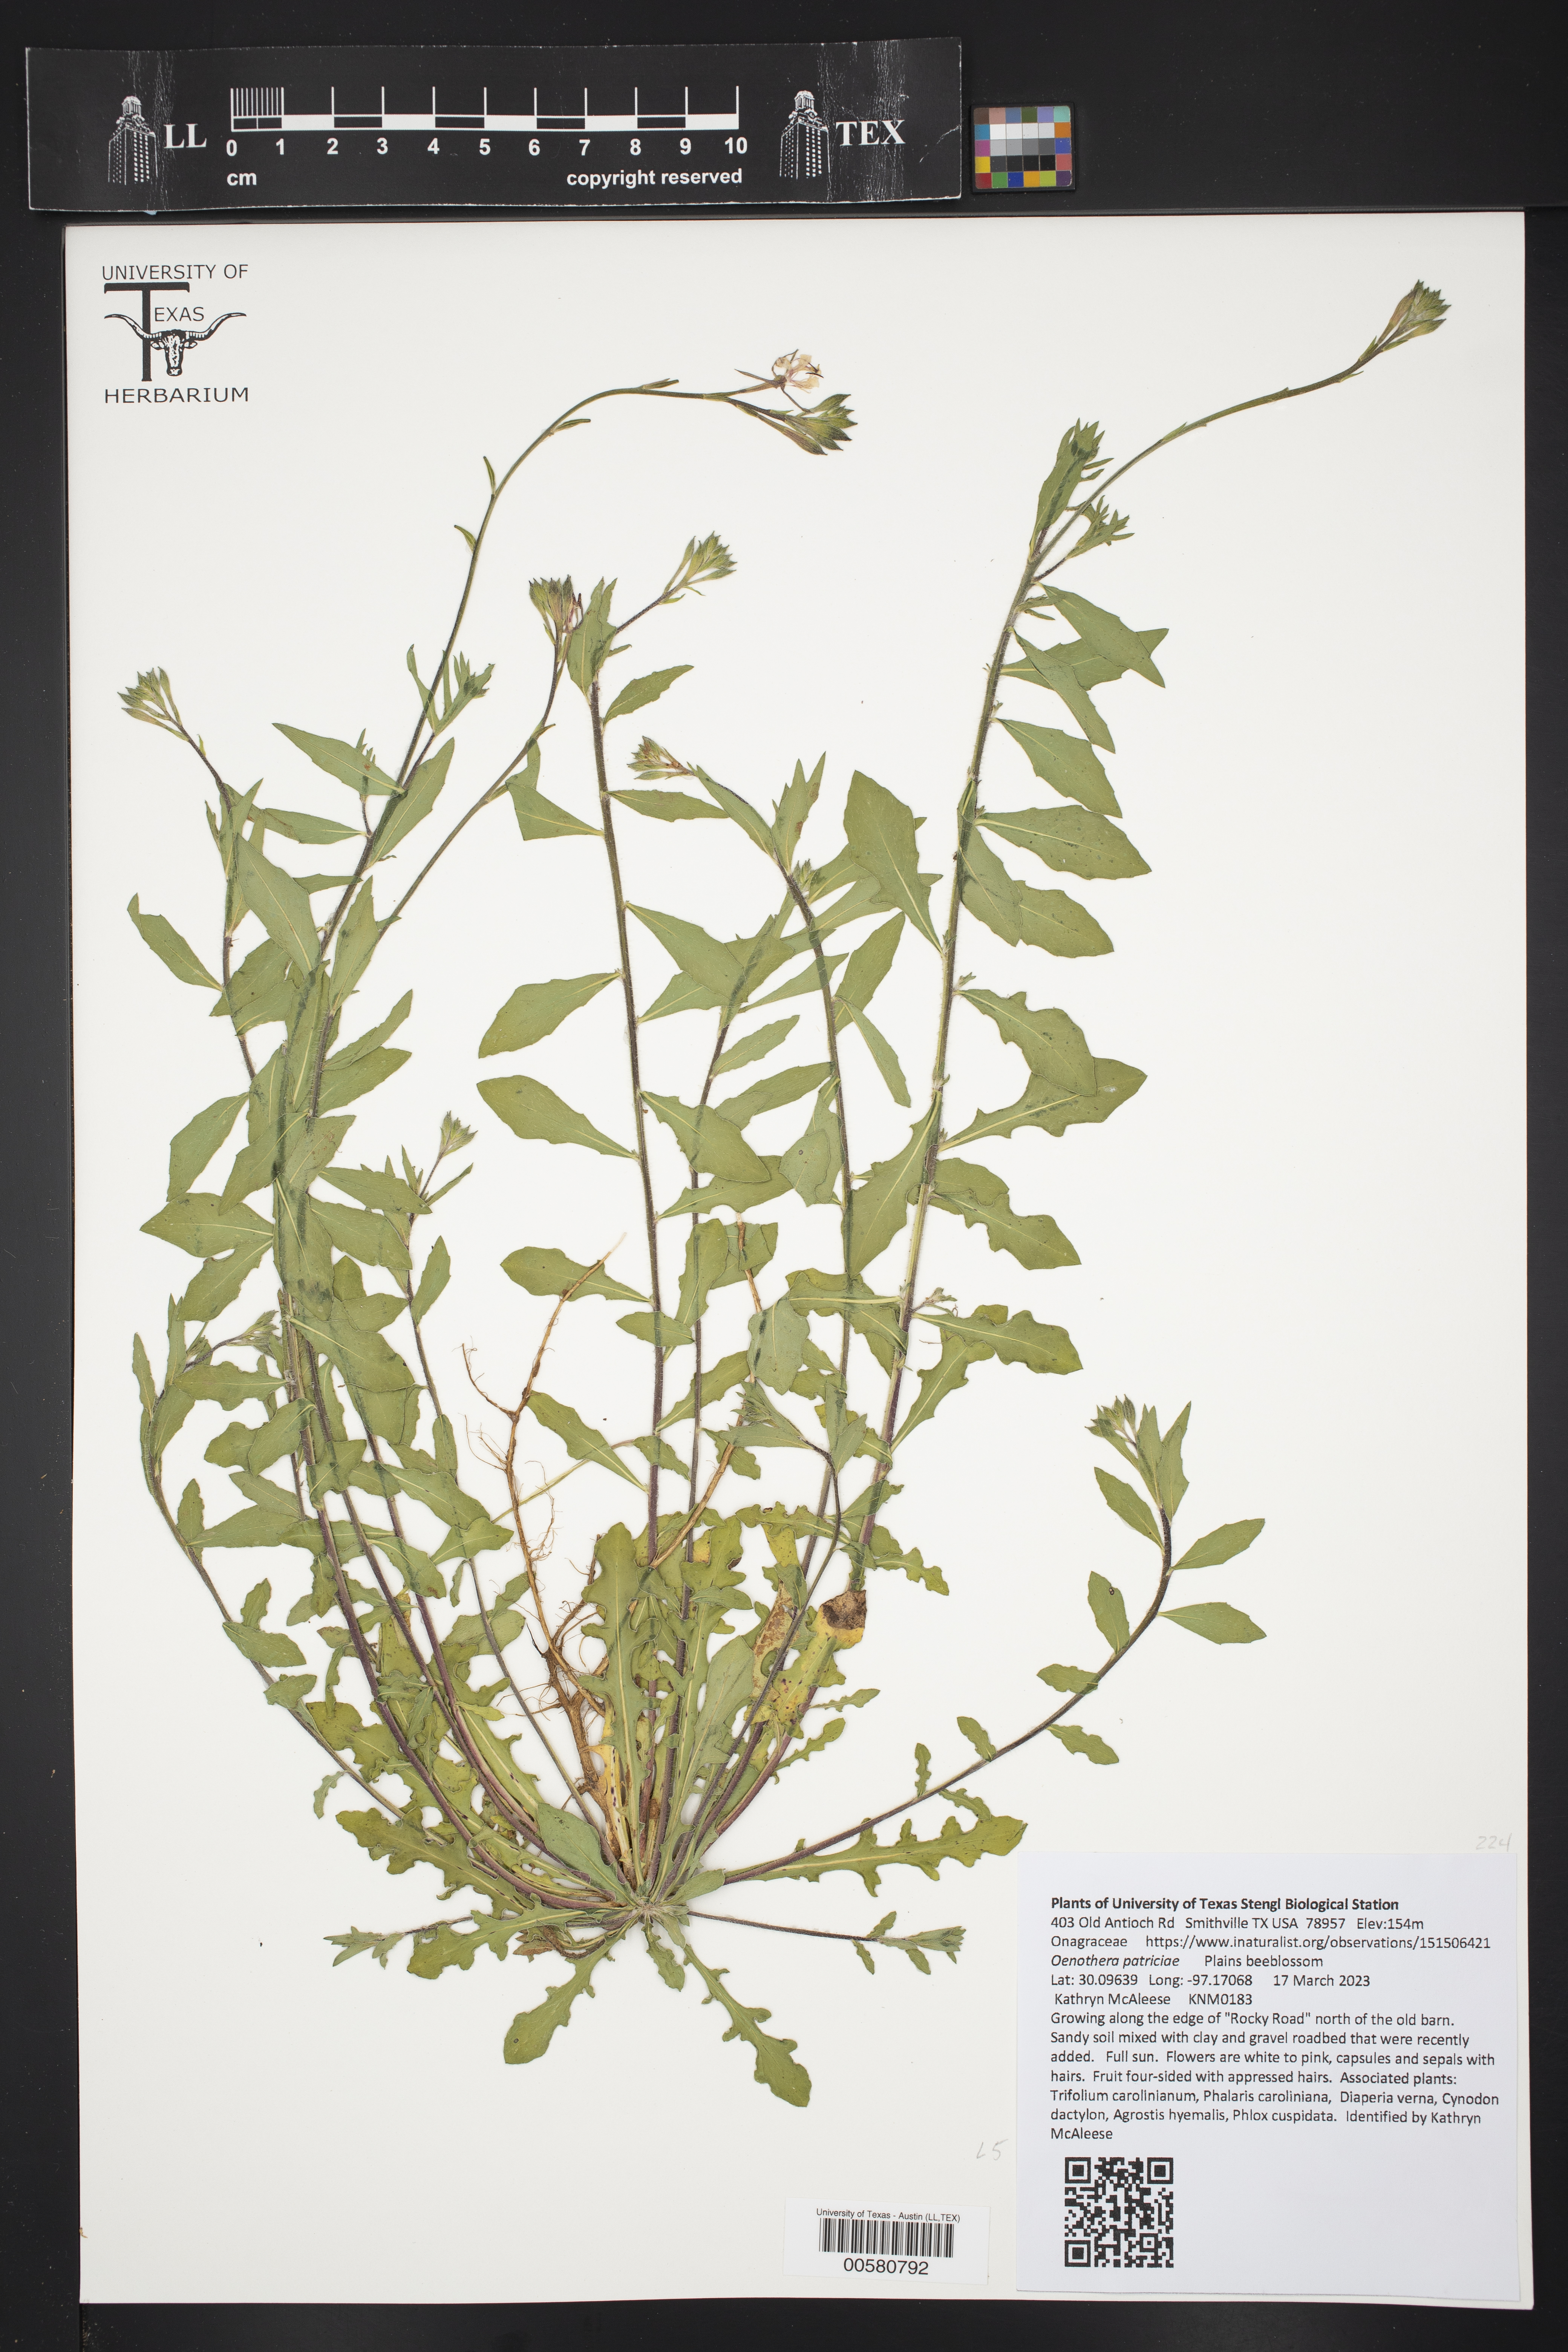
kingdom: Plantae
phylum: Tracheophyta
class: Magnoliopsida
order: Myrtales
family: Onagraceae
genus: Oenothera
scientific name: Oenothera patriciae
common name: Plains beeblossom
